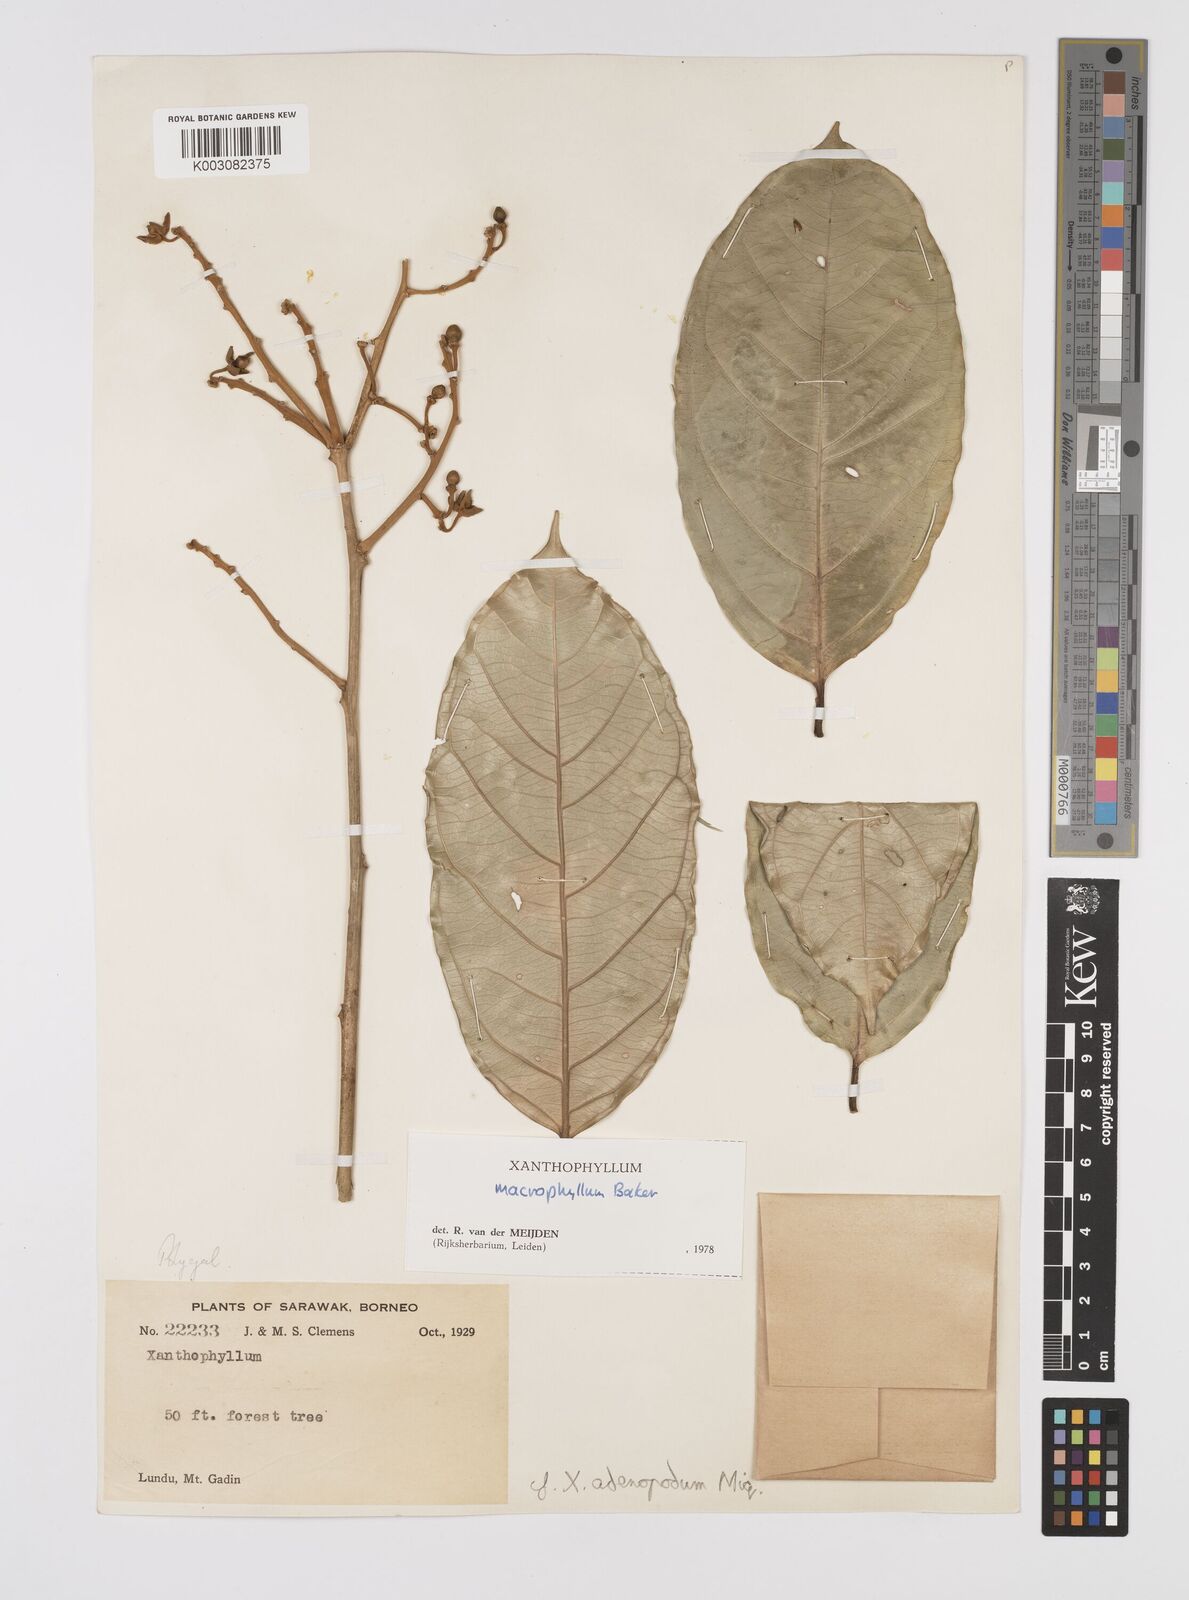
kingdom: Plantae
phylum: Tracheophyta
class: Magnoliopsida
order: Fabales
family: Polygalaceae
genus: Xanthophyllum
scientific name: Xanthophyllum macrophyllum
